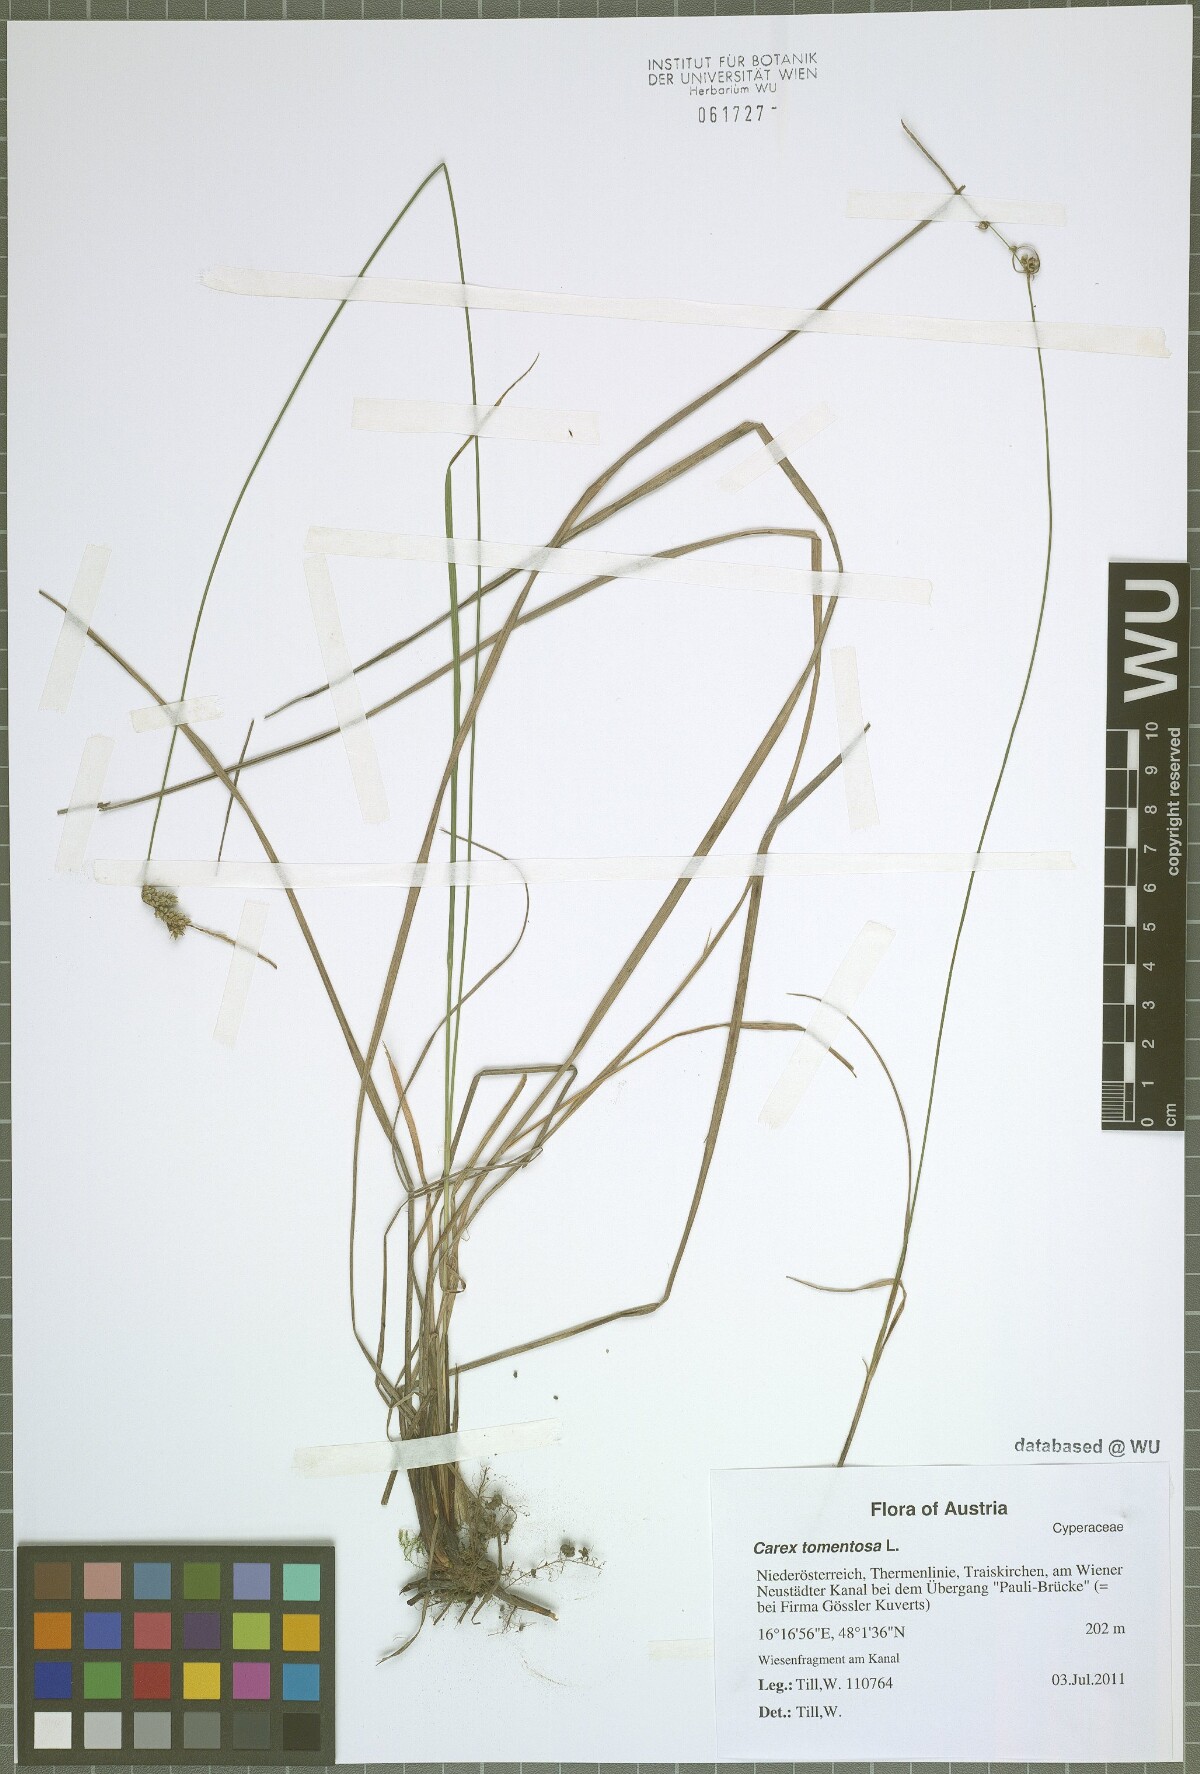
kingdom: Plantae
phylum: Tracheophyta
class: Liliopsida
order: Poales
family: Cyperaceae
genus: Carex
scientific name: Carex tomentosa
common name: Downy-fruited sedge
